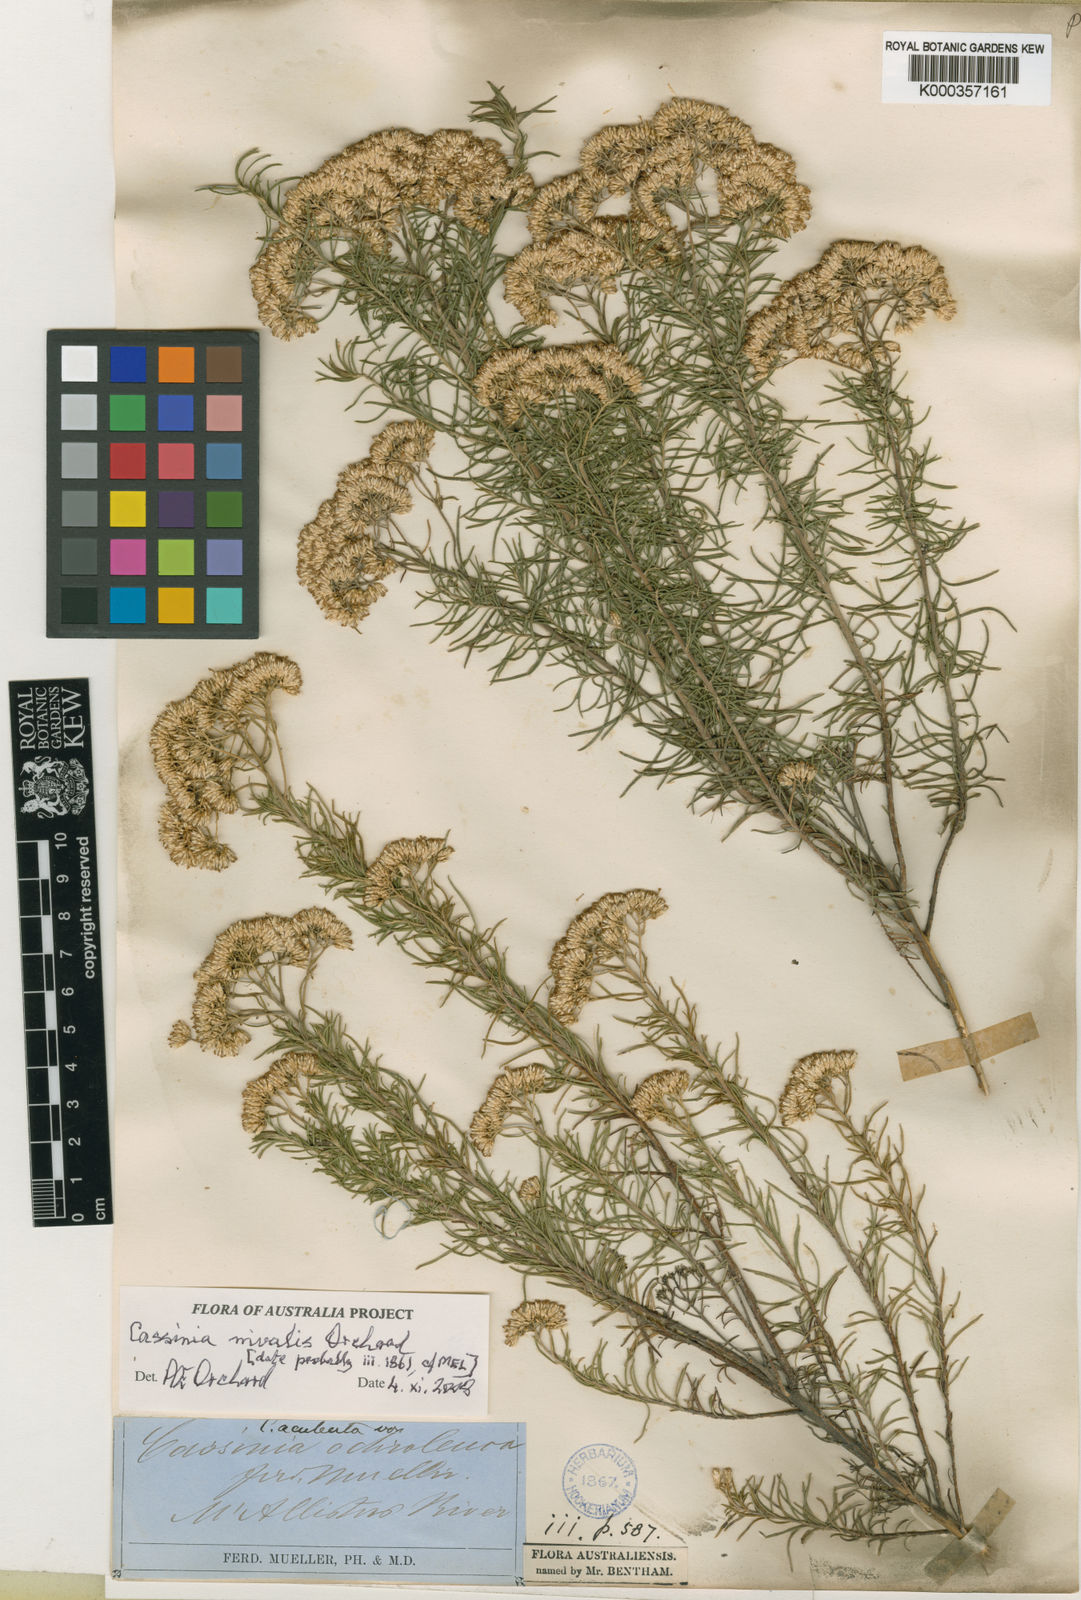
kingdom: Plantae
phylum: Tracheophyta
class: Magnoliopsida
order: Asterales
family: Asteraceae
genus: Cassinia
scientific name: Cassinia nivalis
